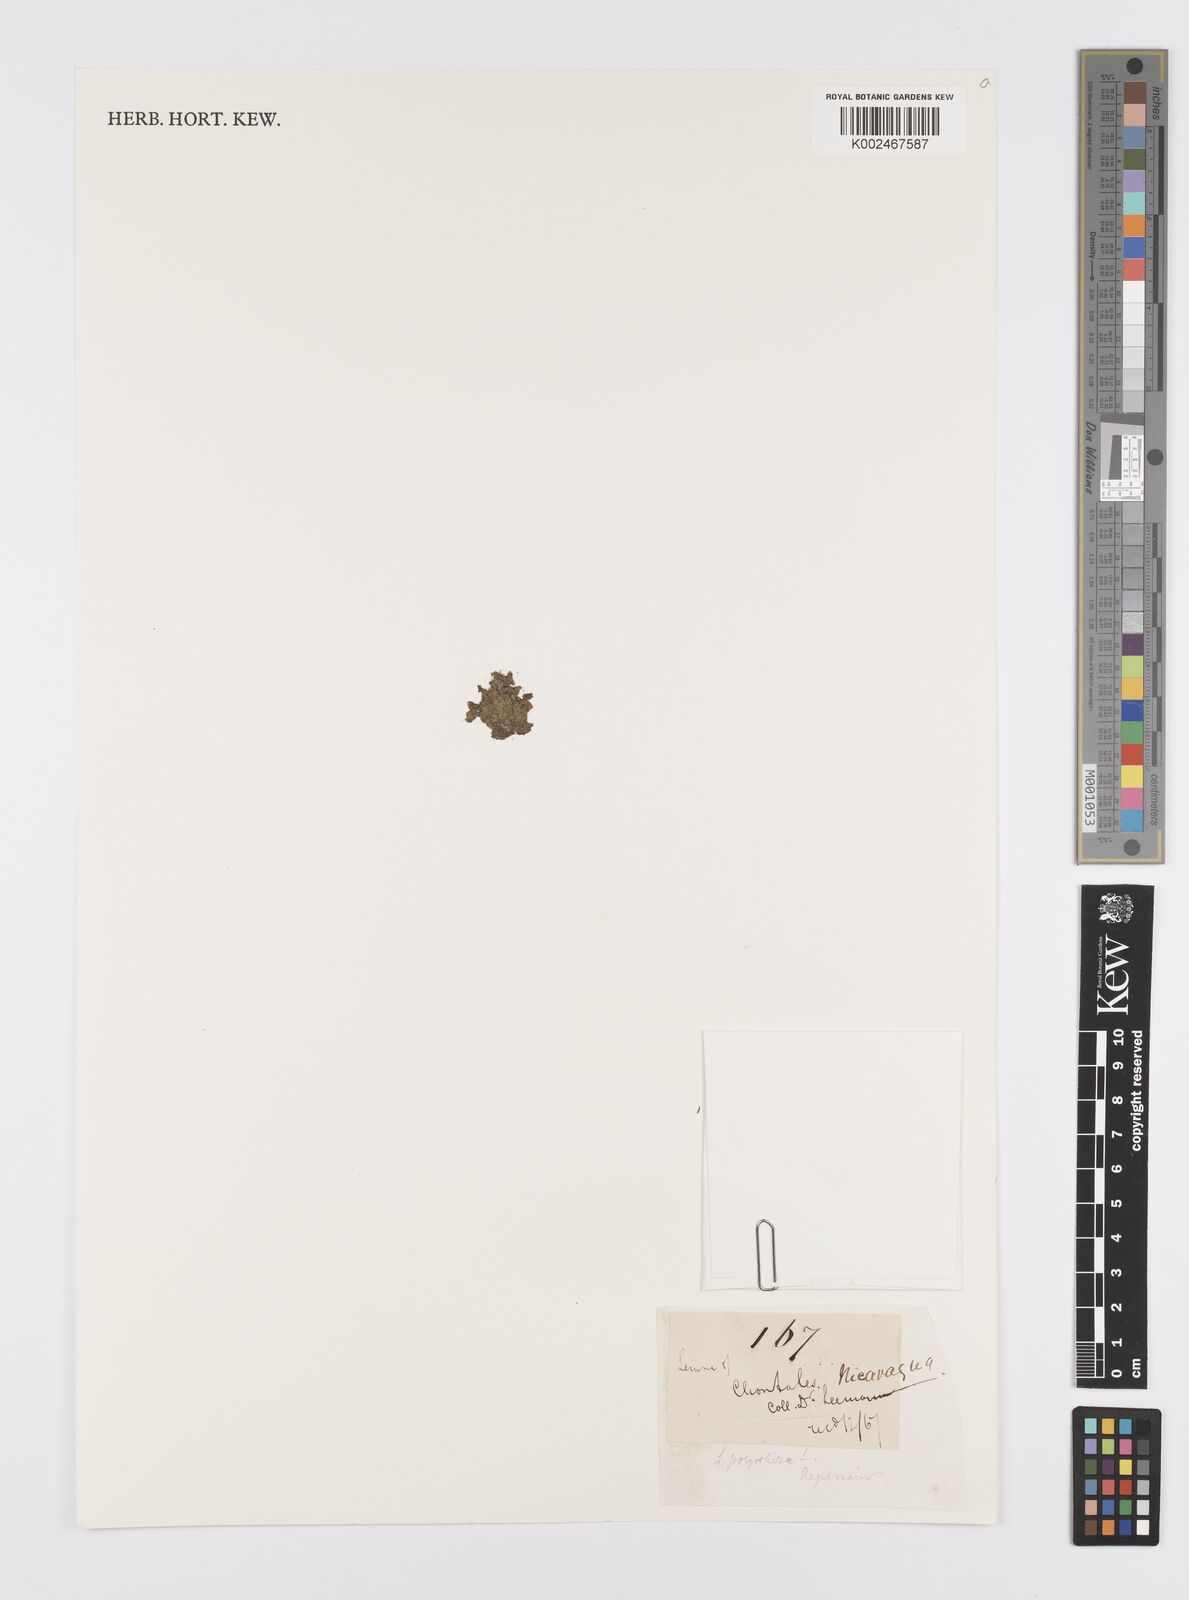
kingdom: Plantae
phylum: Tracheophyta
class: Liliopsida
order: Alismatales
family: Araceae
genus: Spirodela
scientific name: Spirodela polyrhiza
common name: Great duckweed
